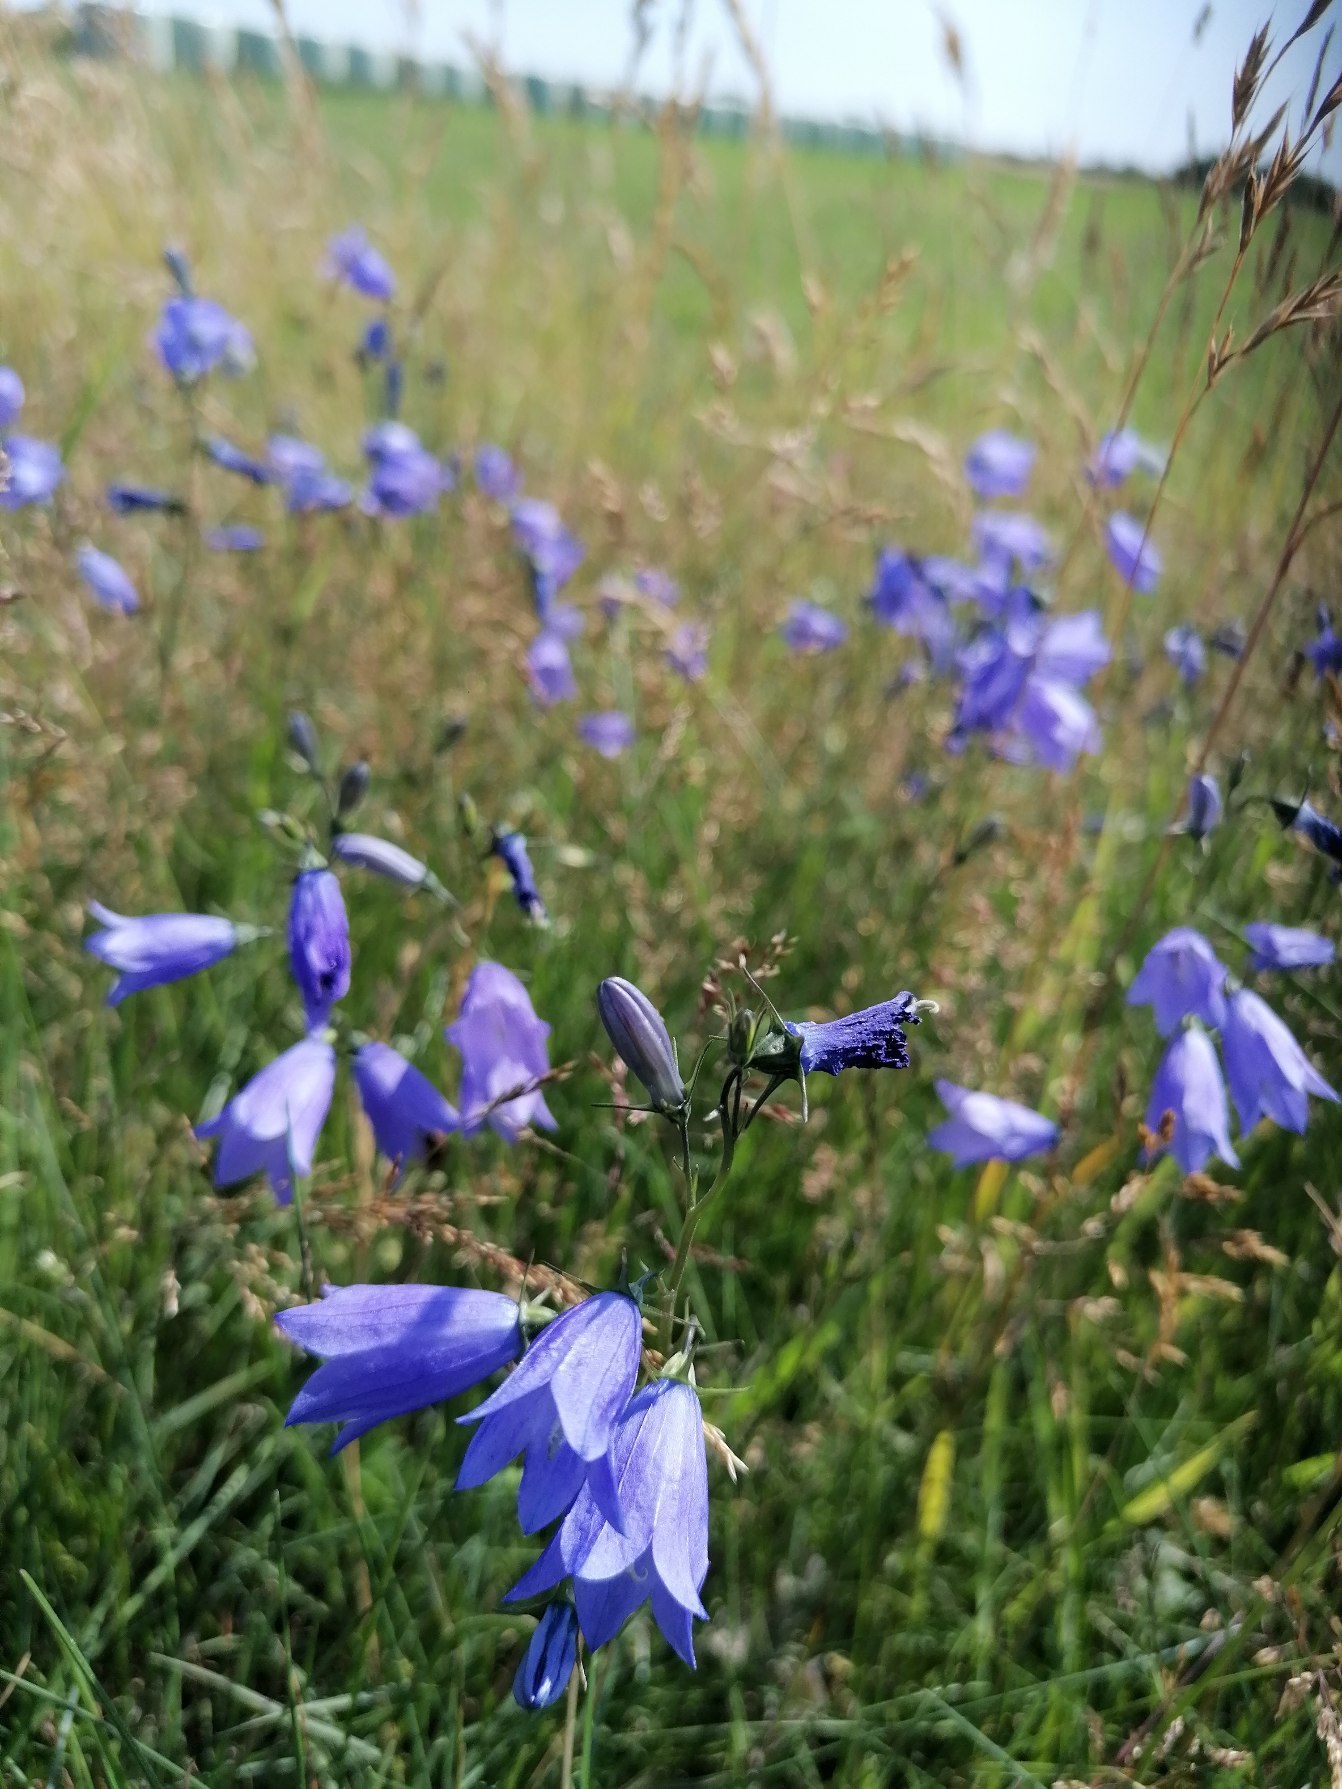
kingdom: Plantae
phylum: Tracheophyta
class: Magnoliopsida
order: Asterales
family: Campanulaceae
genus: Campanula
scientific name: Campanula rotundifolia
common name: Liden klokke
